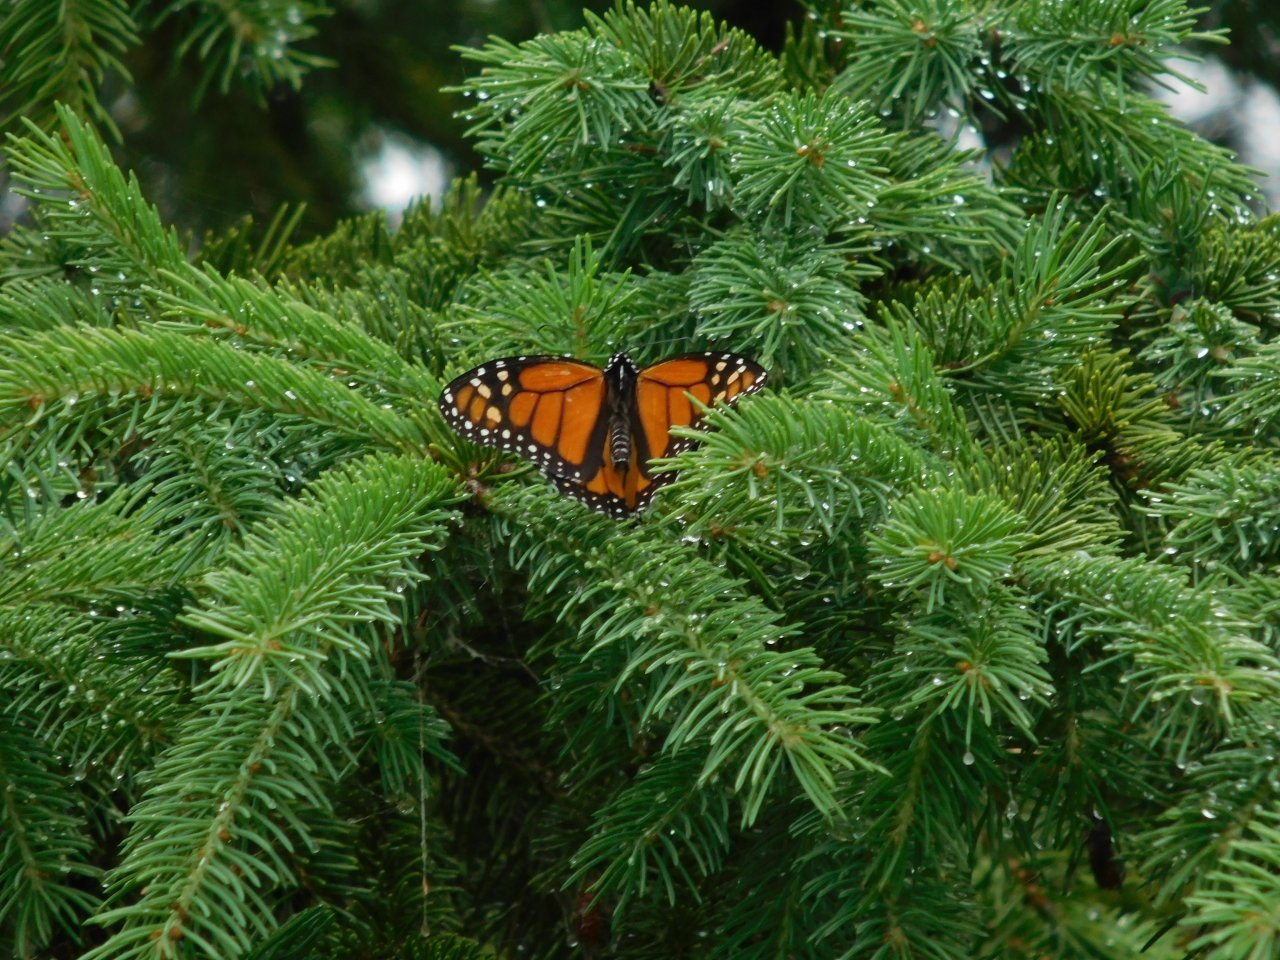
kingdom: Animalia
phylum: Arthropoda
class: Insecta
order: Lepidoptera
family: Nymphalidae
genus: Danaus
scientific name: Danaus plexippus
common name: Monarch
